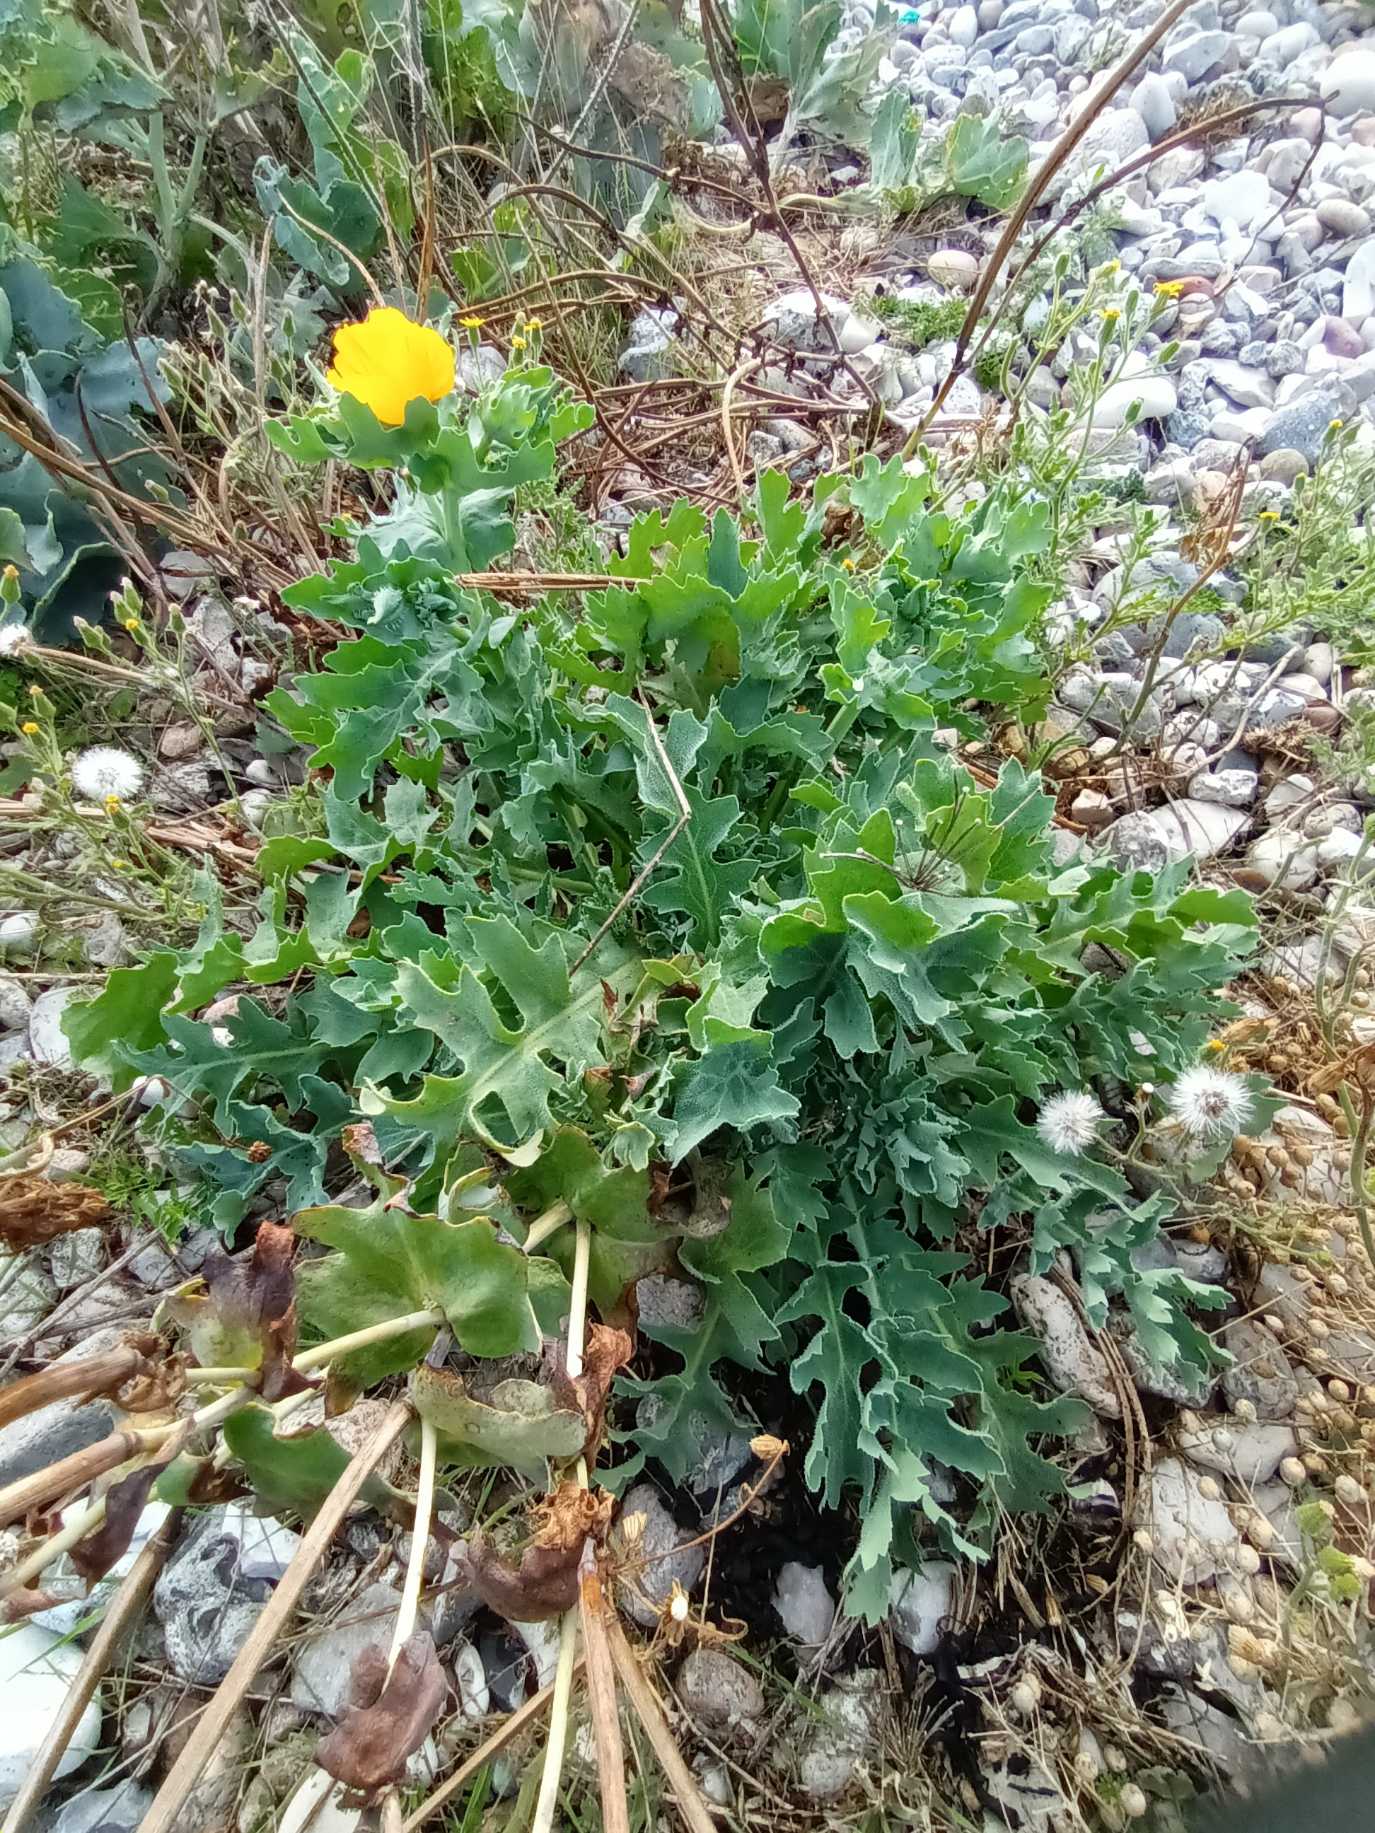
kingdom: Plantae
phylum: Tracheophyta
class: Magnoliopsida
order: Ranunculales
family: Papaveraceae
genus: Glaucium
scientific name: Glaucium flavum
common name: Hornskulpe
